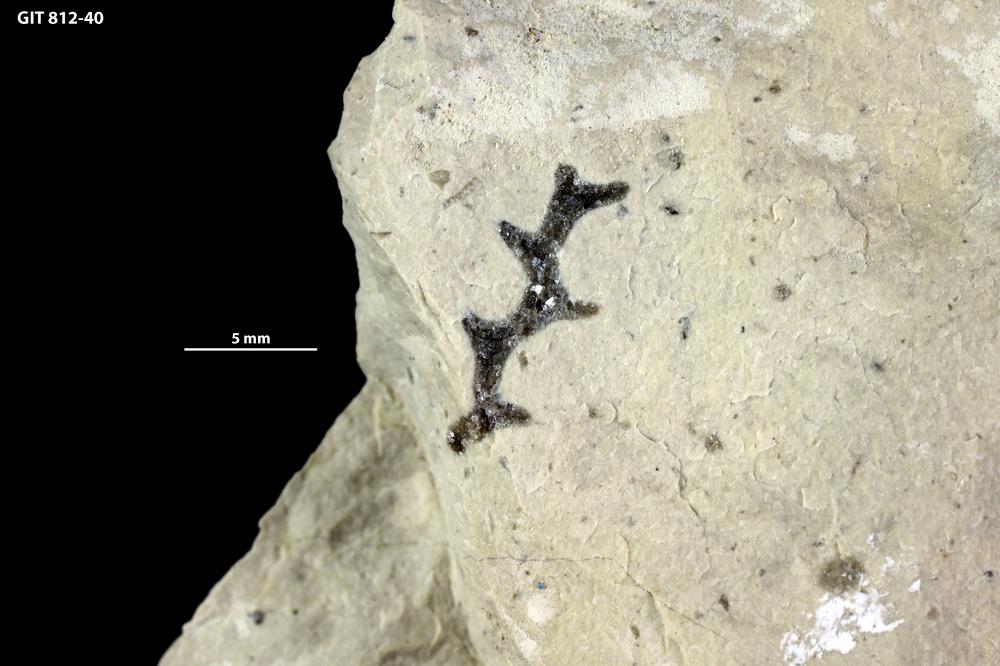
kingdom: Animalia
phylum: Cnidaria
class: Hydrozoa
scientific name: Hydrozoa
